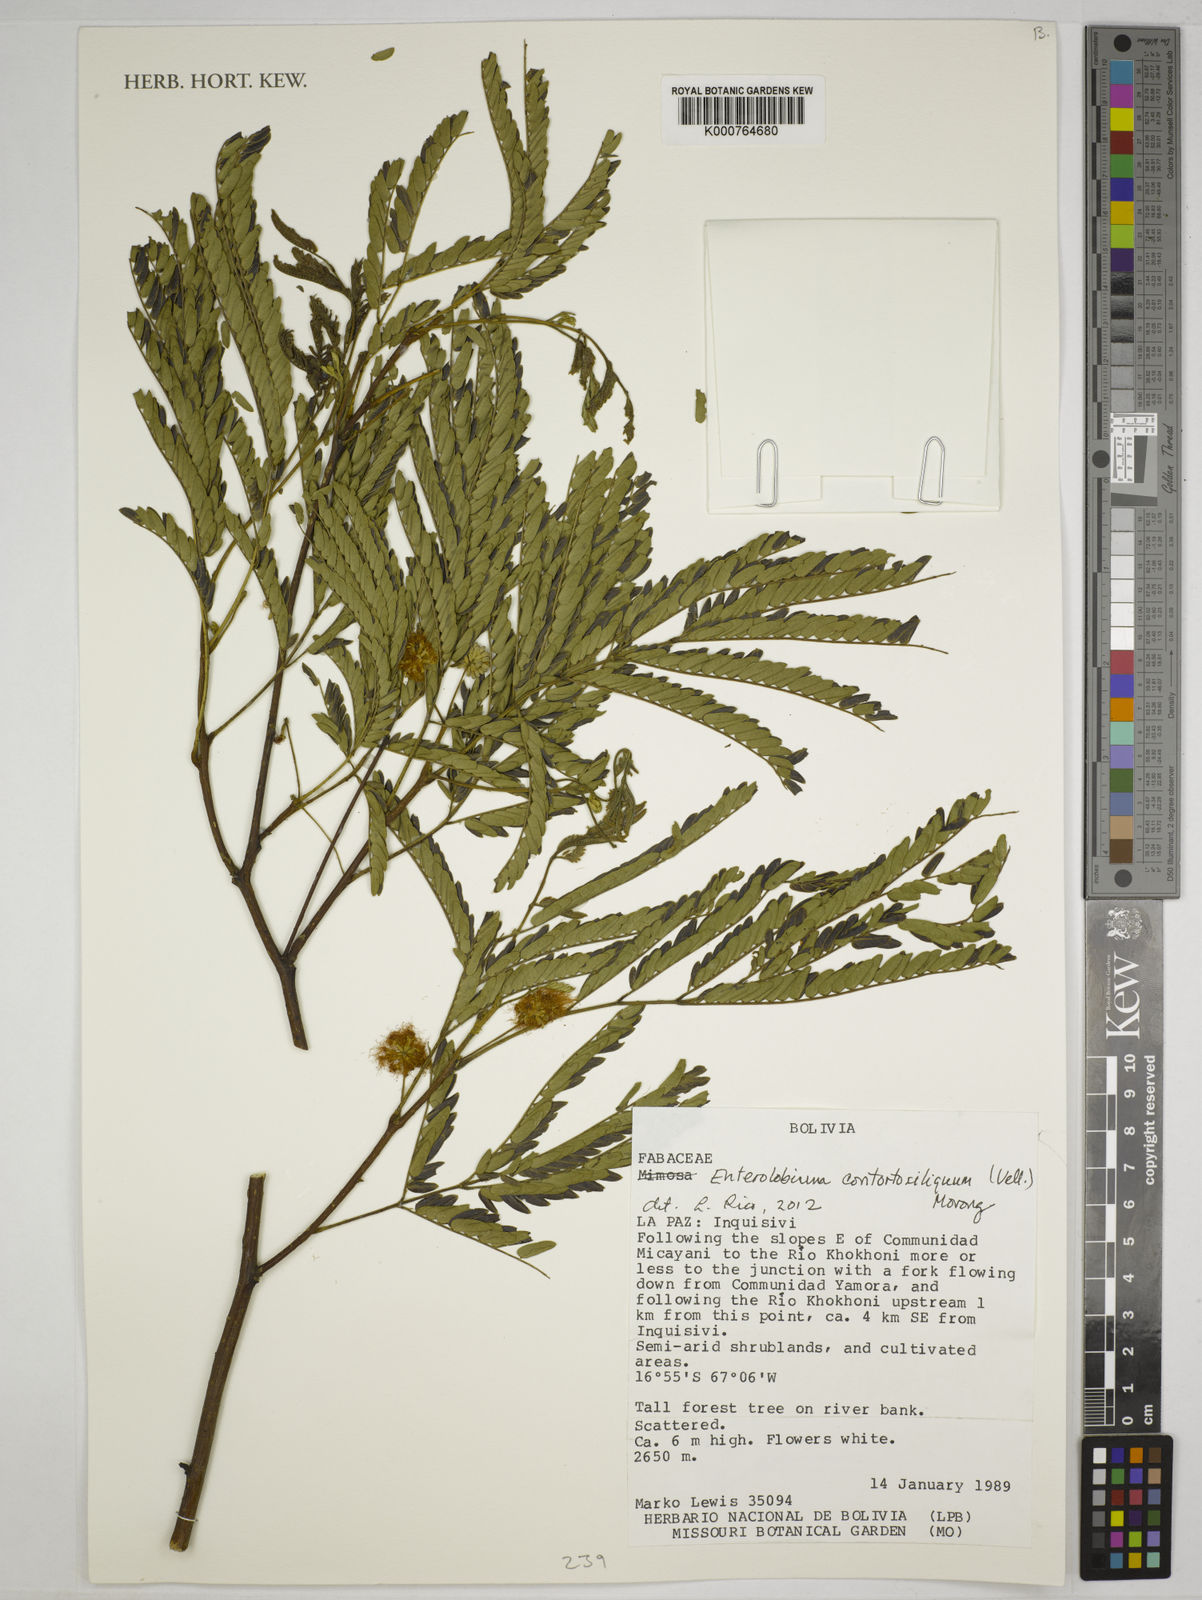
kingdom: Plantae
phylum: Tracheophyta
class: Magnoliopsida
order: Fabales
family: Fabaceae
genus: Enterolobium
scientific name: Enterolobium
